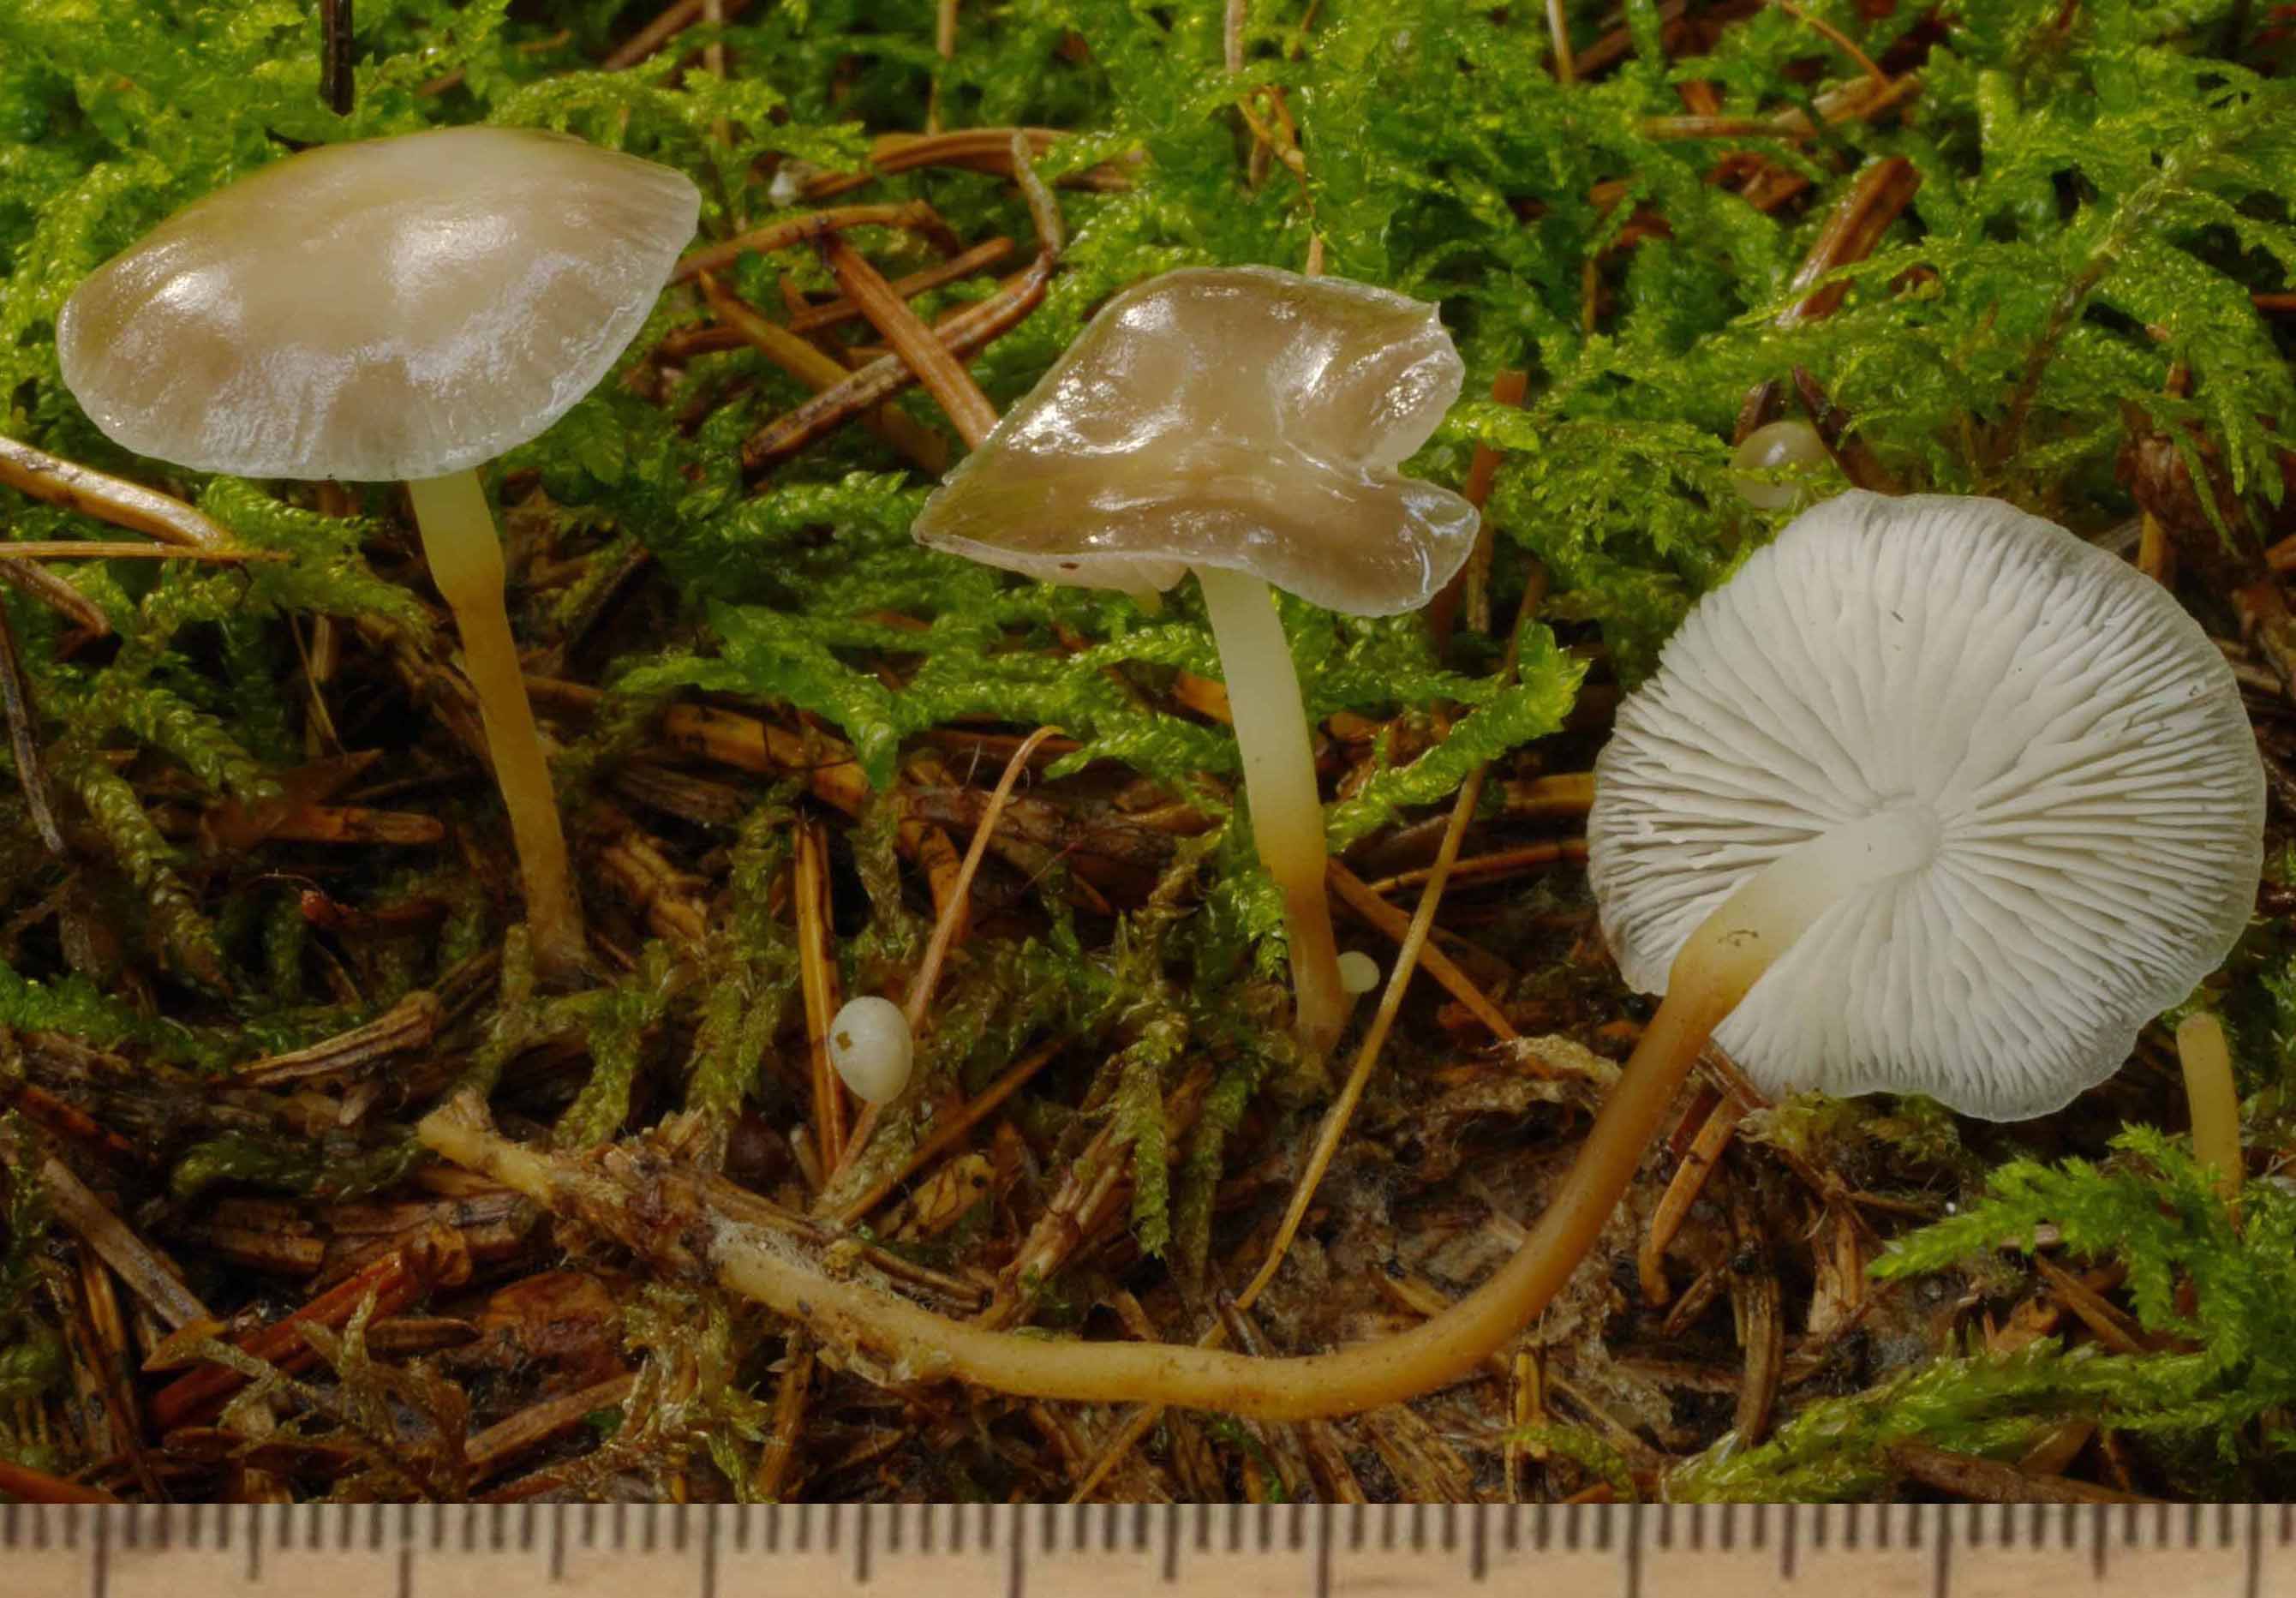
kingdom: Fungi
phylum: Basidiomycota
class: Agaricomycetes
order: Agaricales
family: Physalacriaceae
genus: Strobilurus
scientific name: Strobilurus esculentus
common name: gran-koglehat
